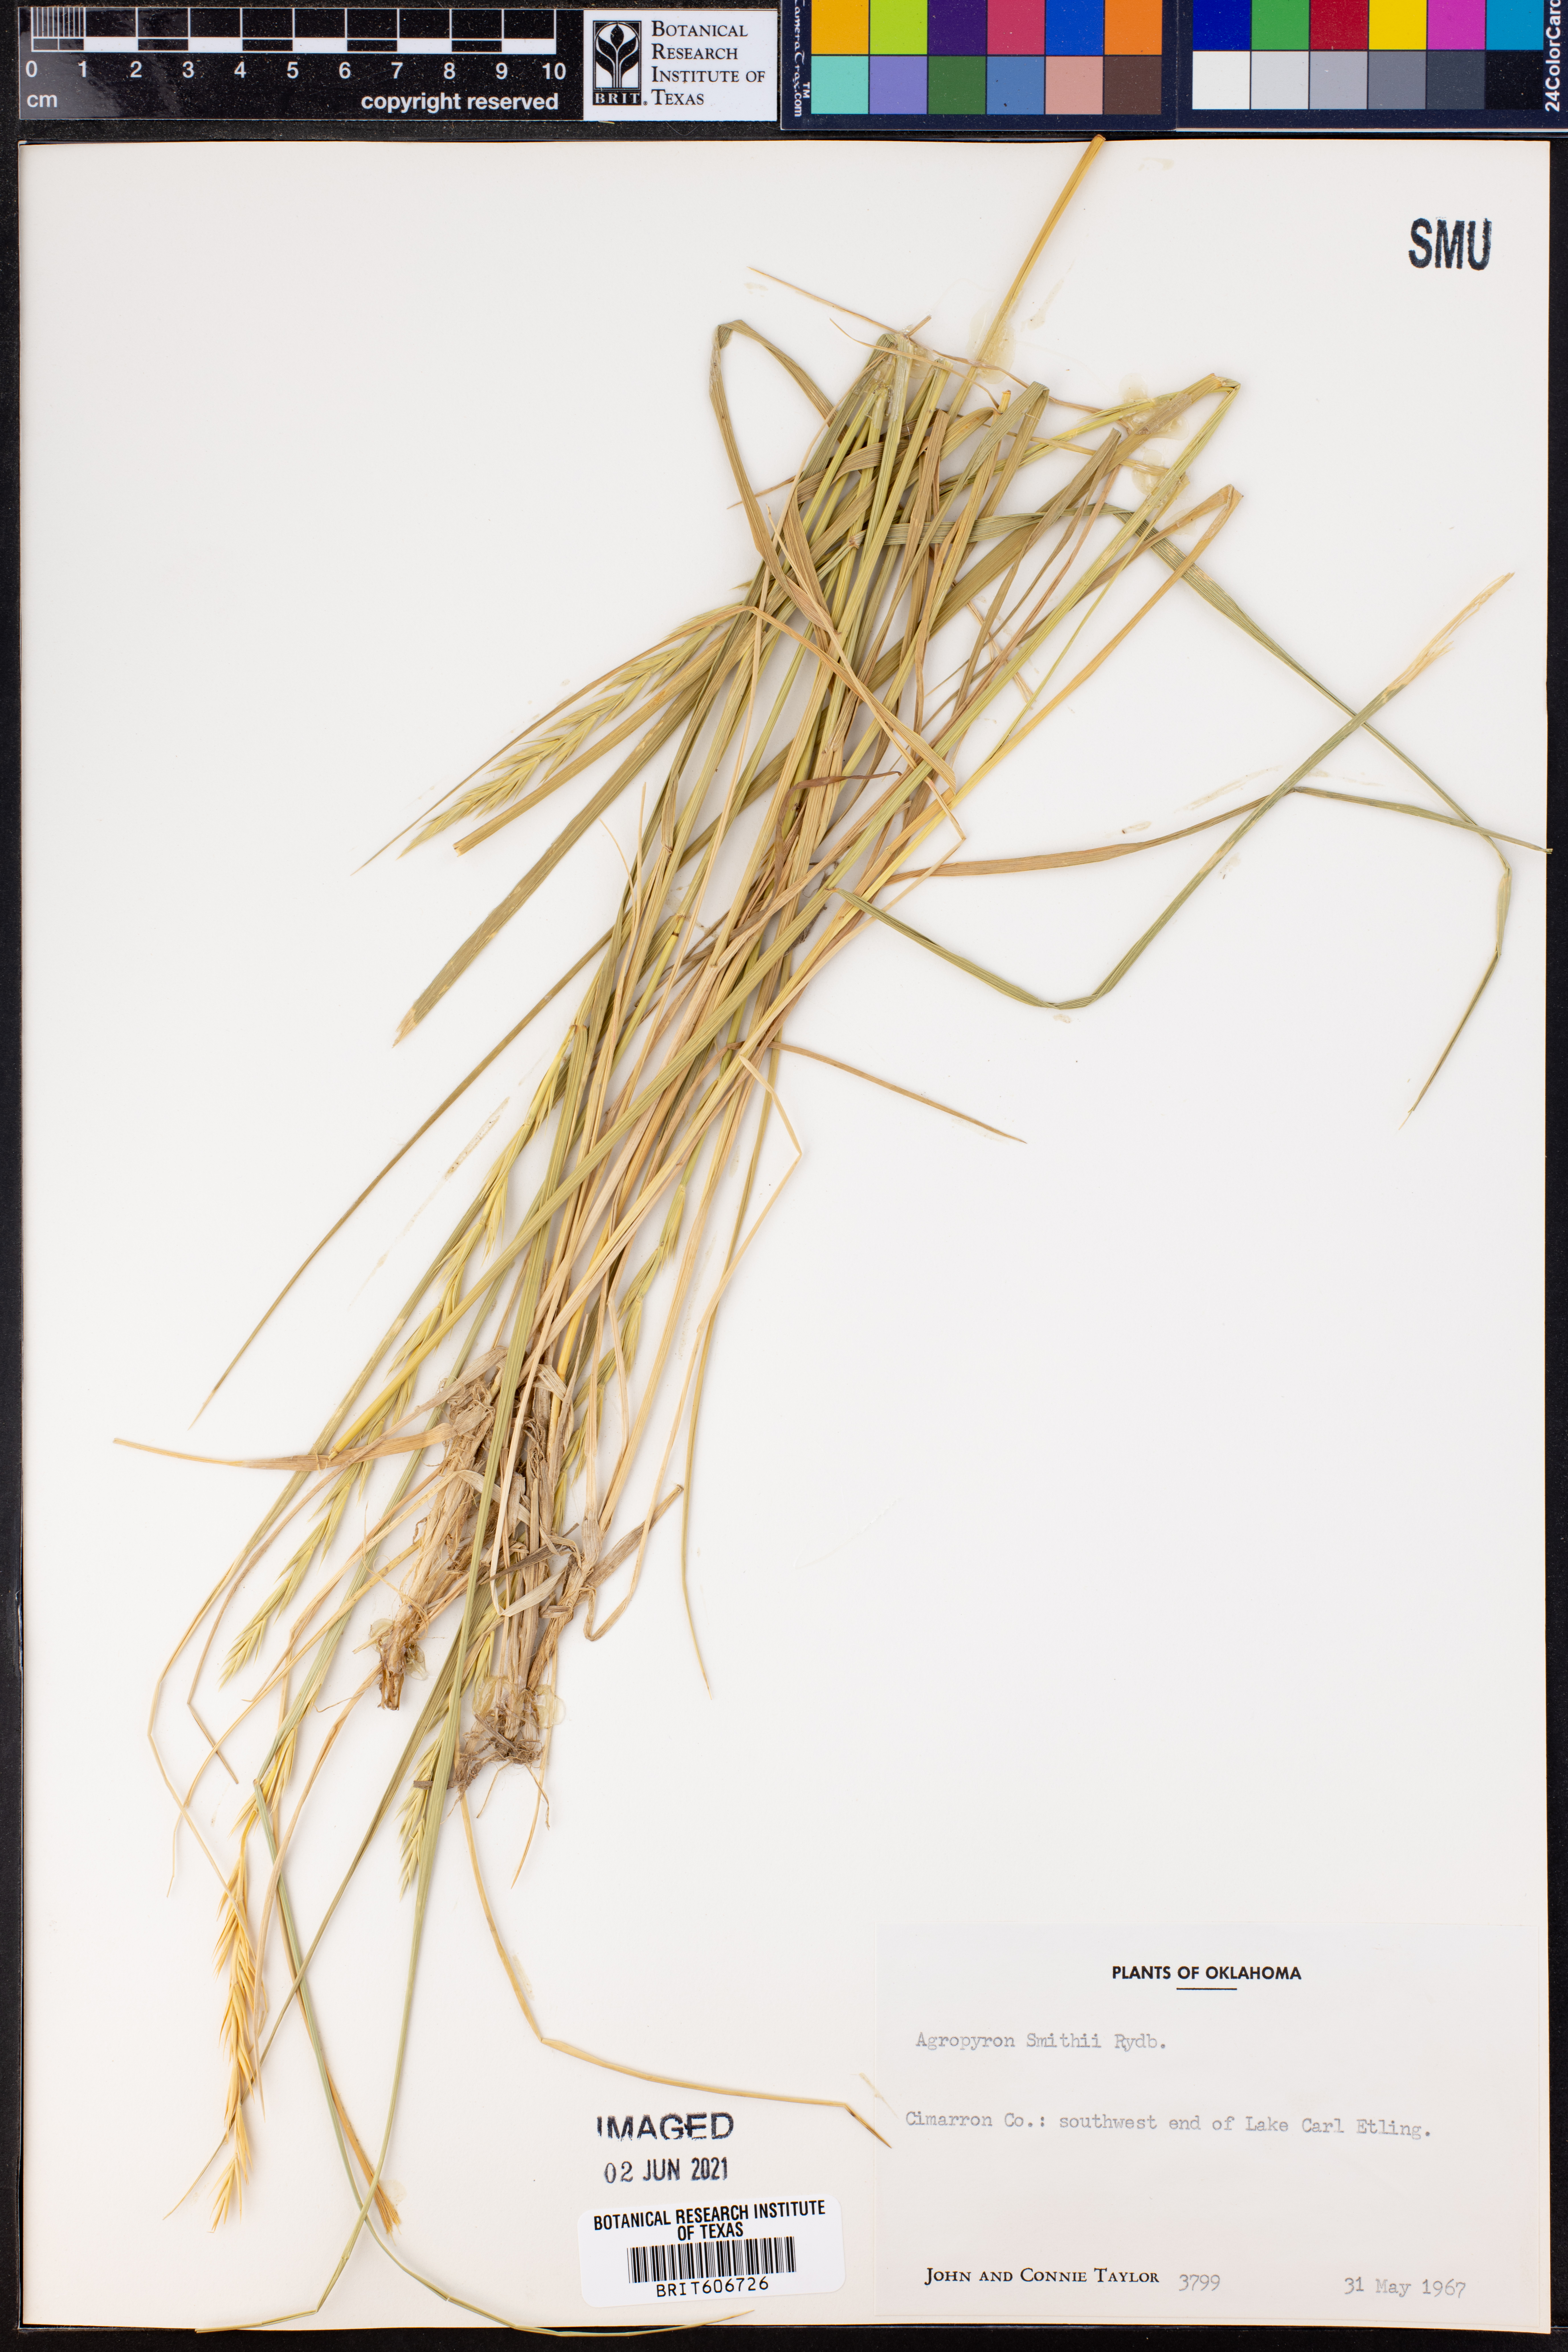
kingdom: Plantae
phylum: Tracheophyta
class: Liliopsida
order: Poales
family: Poaceae
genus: Elymus
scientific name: Elymus smithii
